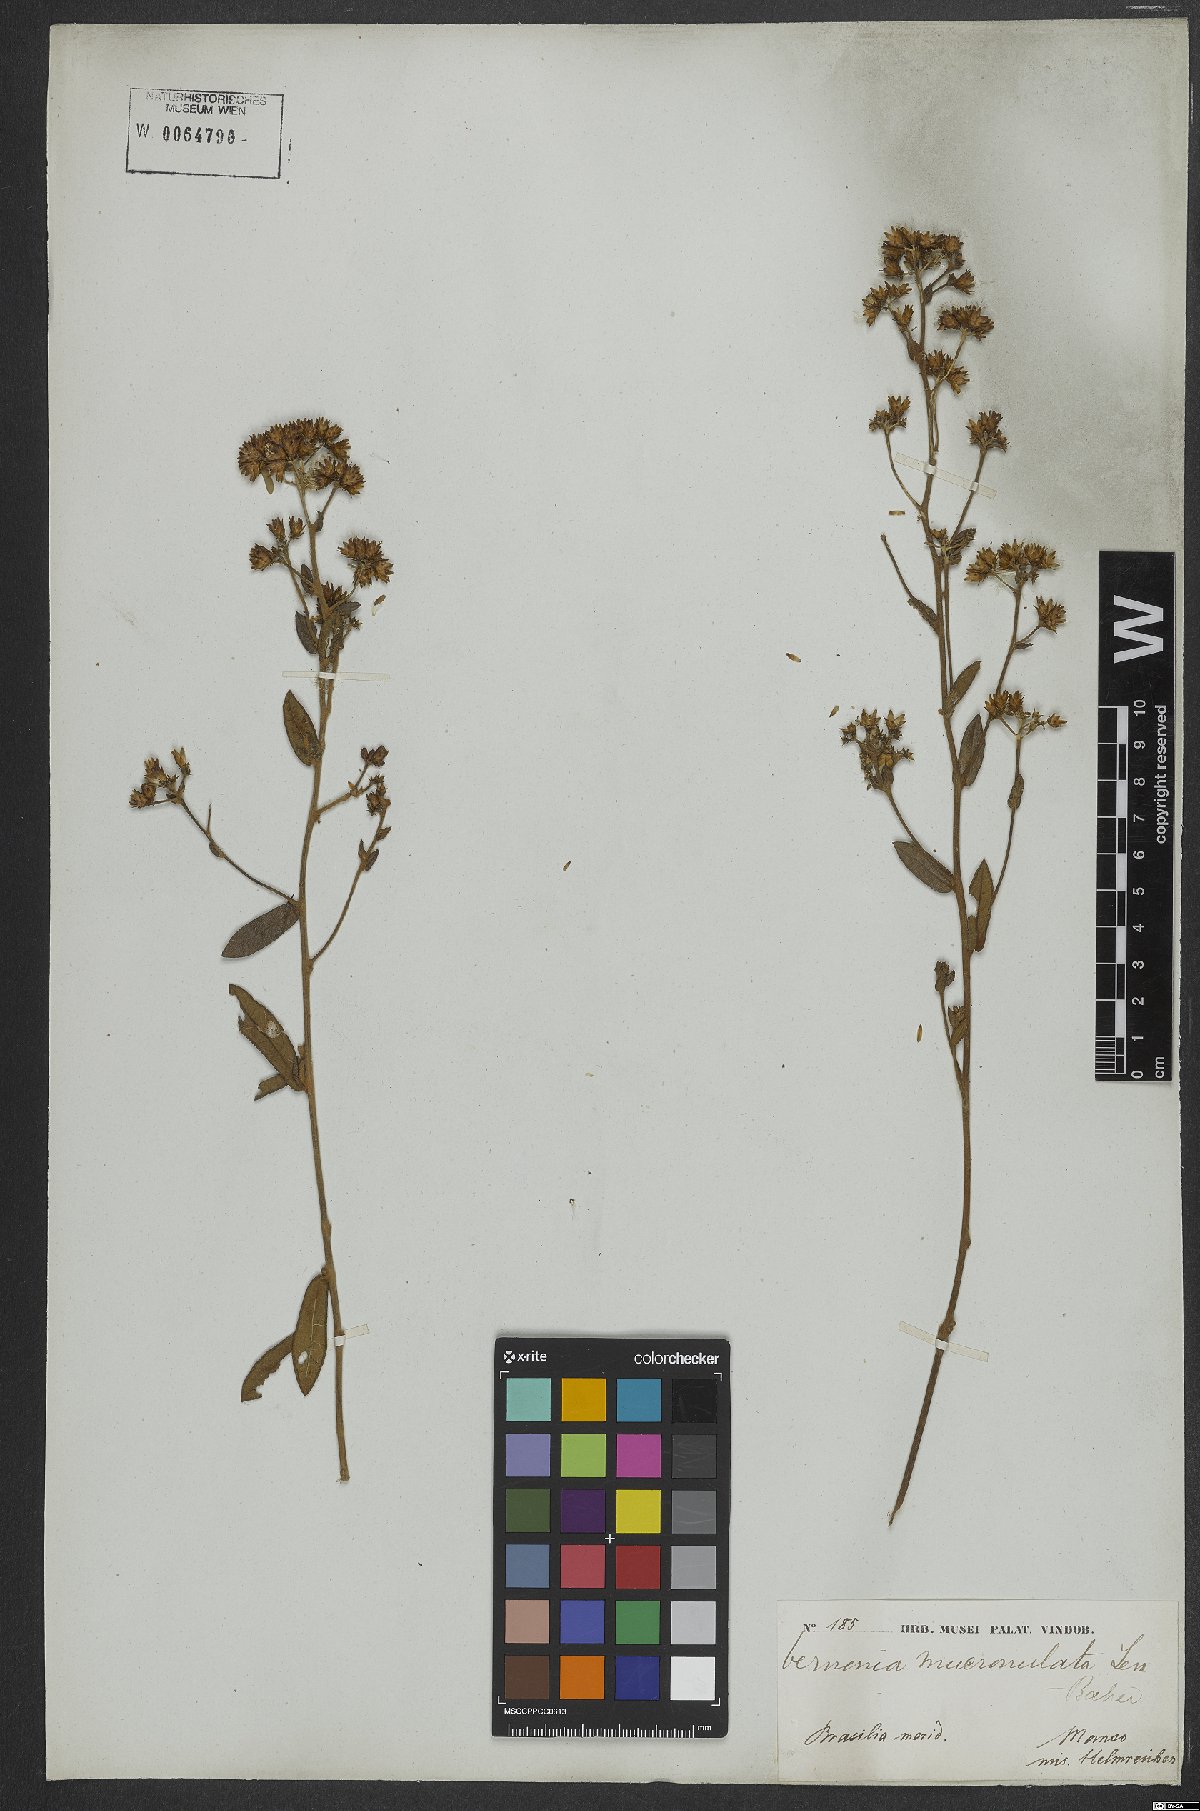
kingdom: Plantae
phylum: Tracheophyta
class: Magnoliopsida
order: Asterales
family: Asteraceae
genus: Vernonanthura
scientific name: Vernonanthura mucronulata
